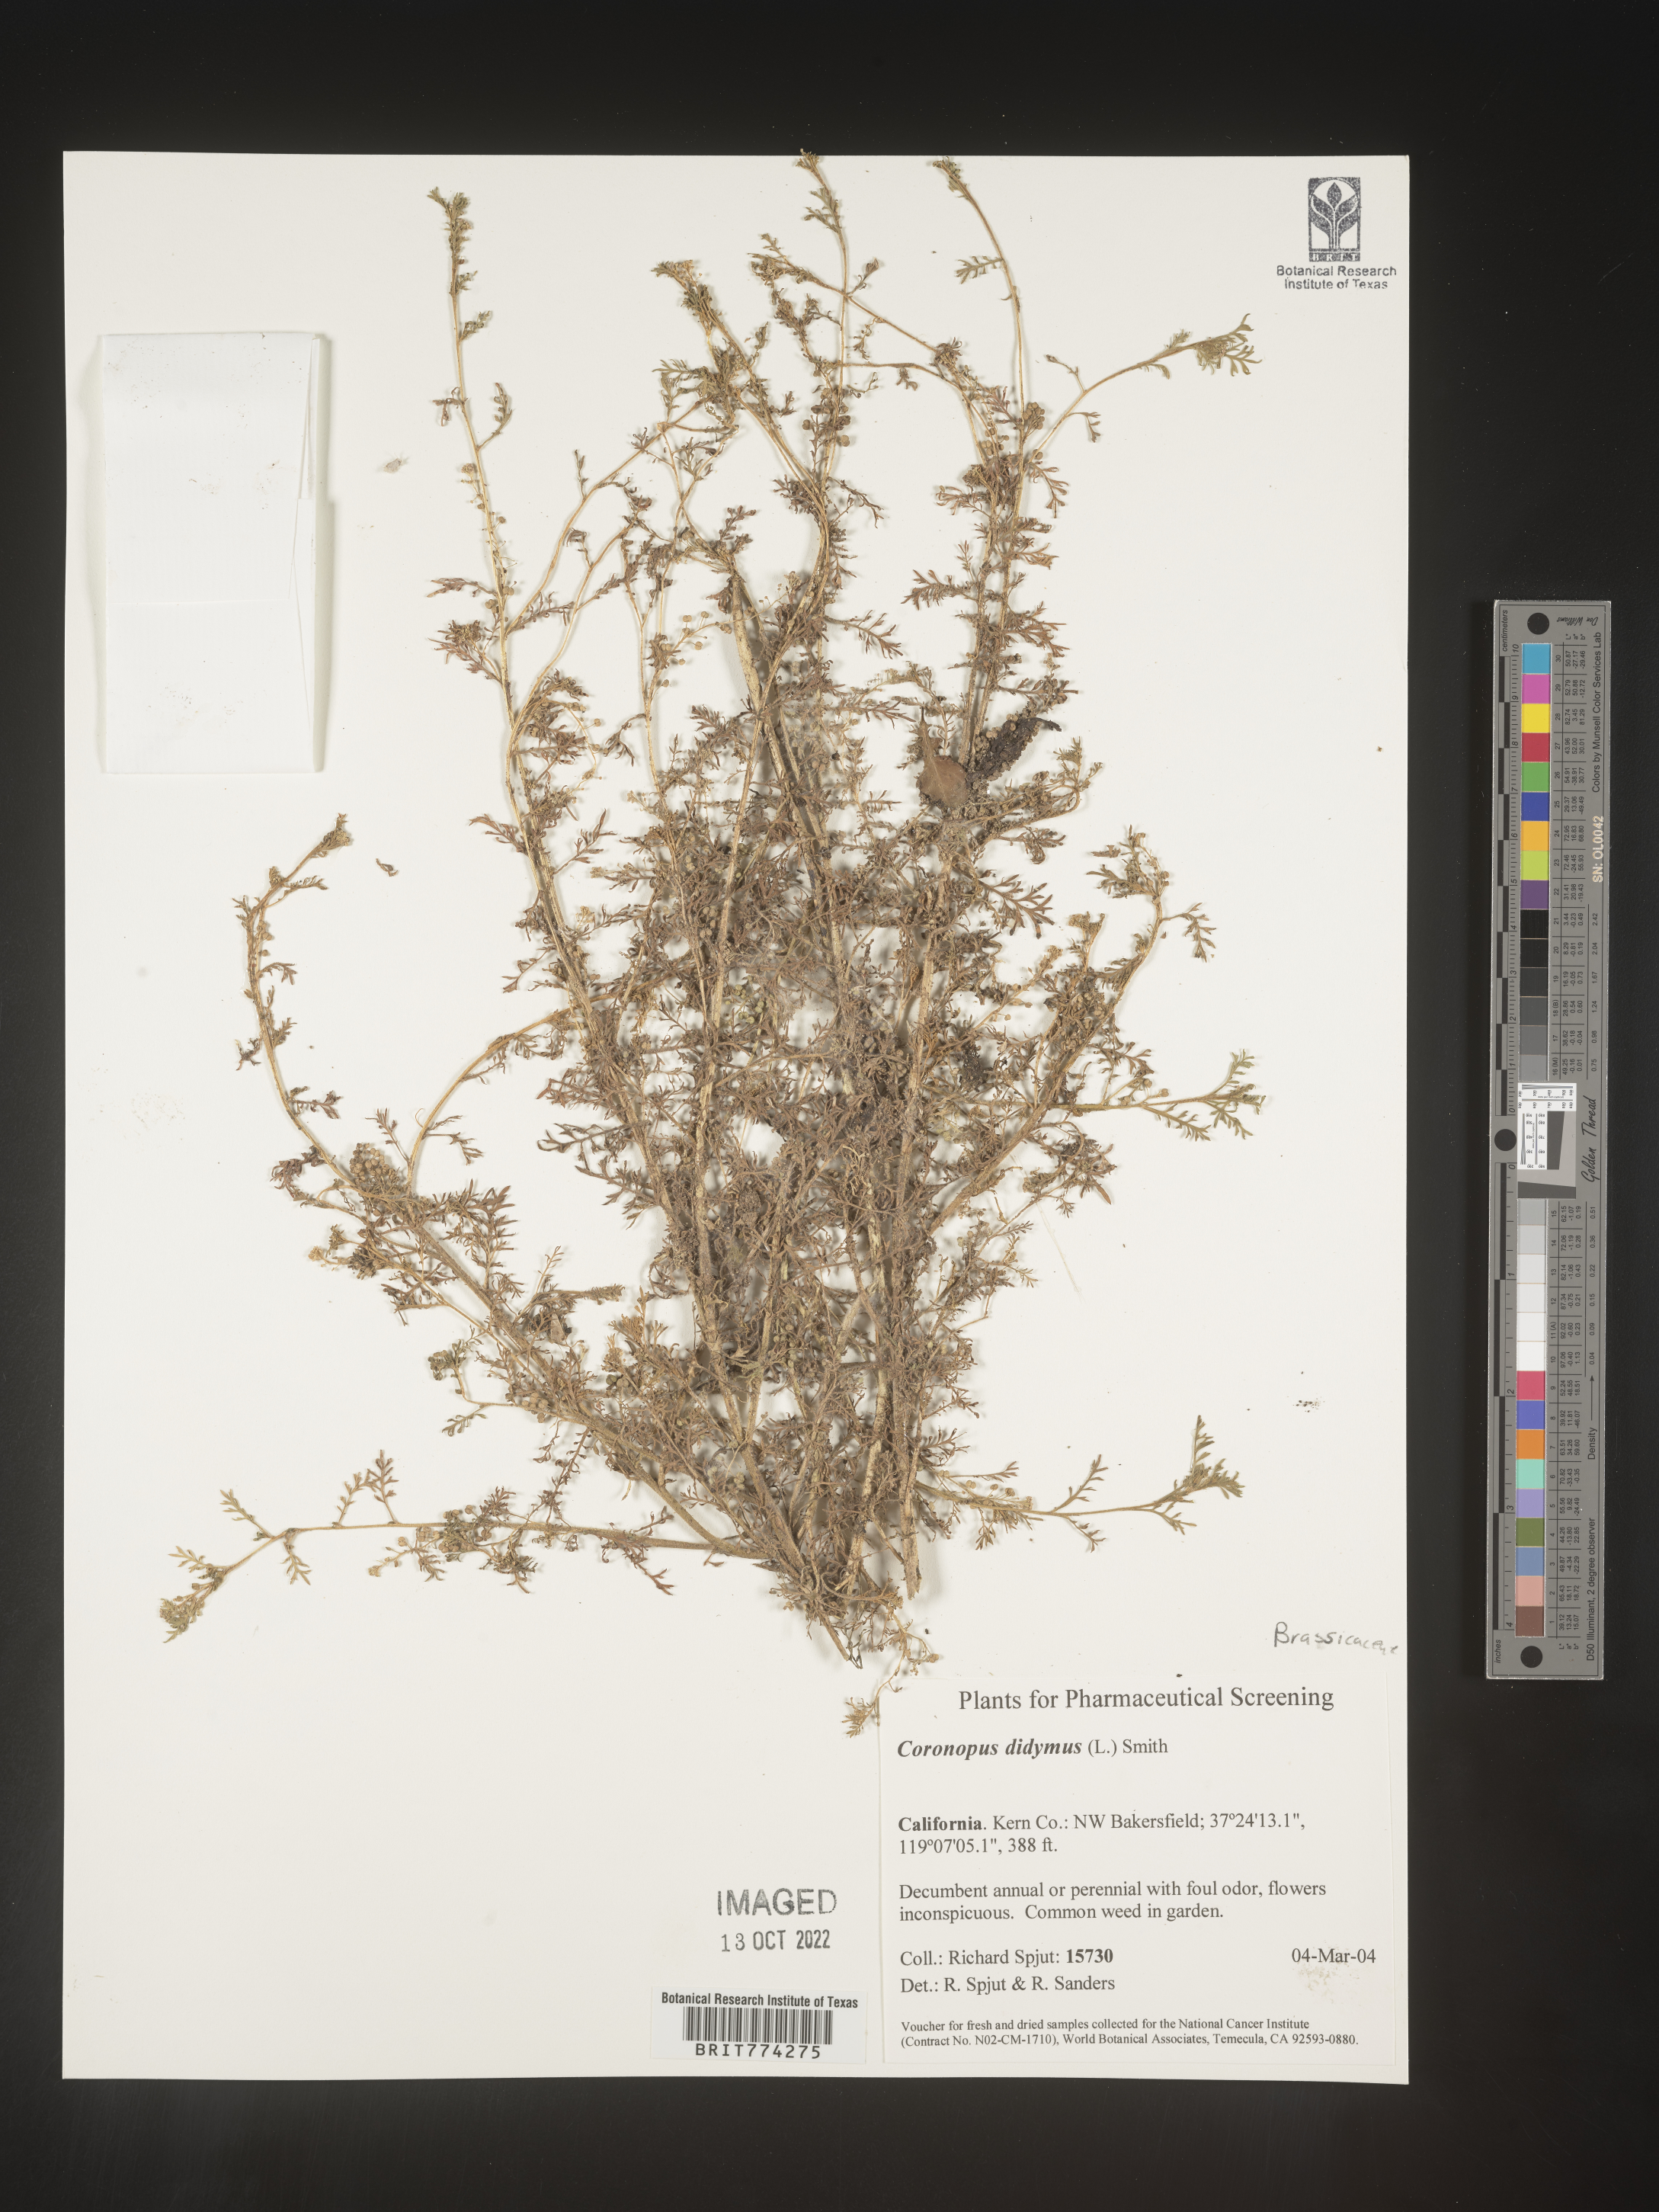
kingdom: Plantae
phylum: Tracheophyta
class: Magnoliopsida
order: Brassicales
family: Brassicaceae
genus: Coronopus
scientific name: Coronopus
